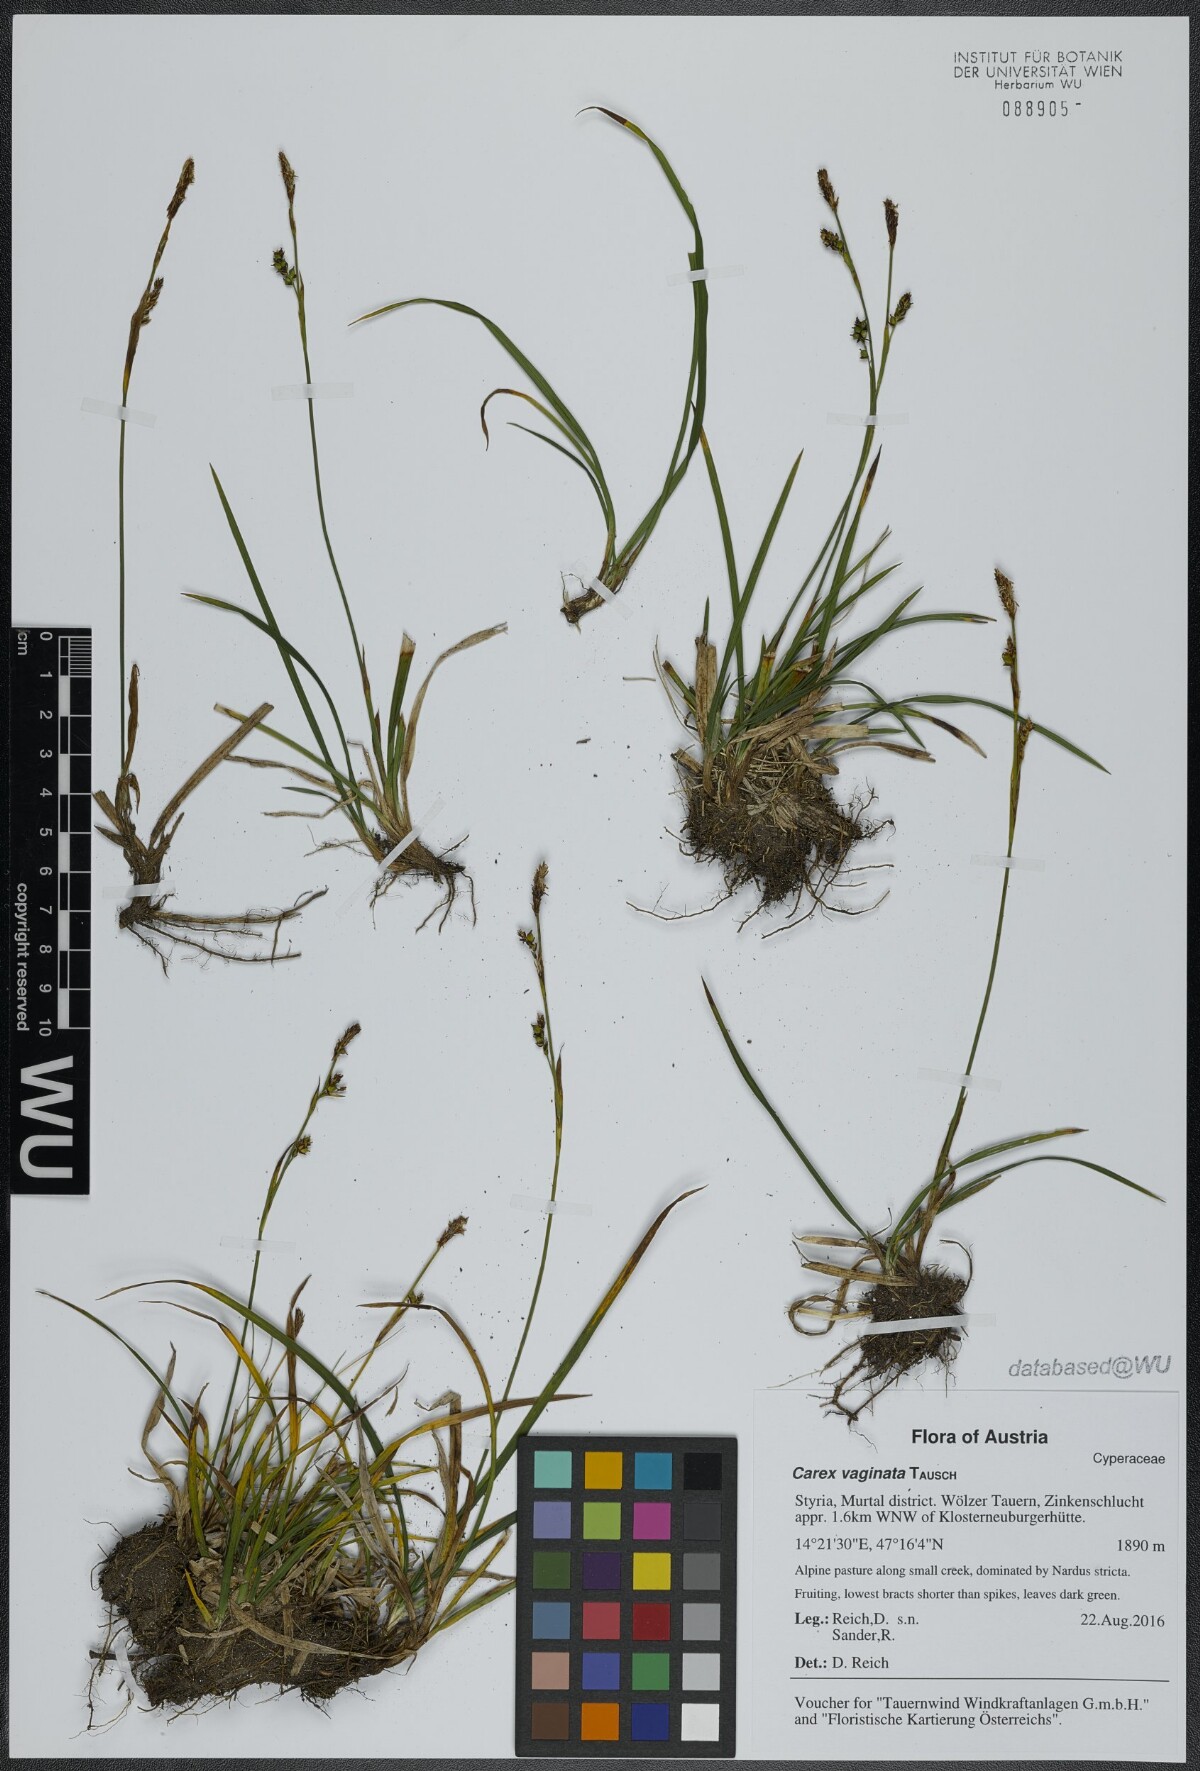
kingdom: Plantae
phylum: Tracheophyta
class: Liliopsida
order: Poales
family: Cyperaceae
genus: Carex
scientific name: Carex vaginata
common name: Sheathed sedge
